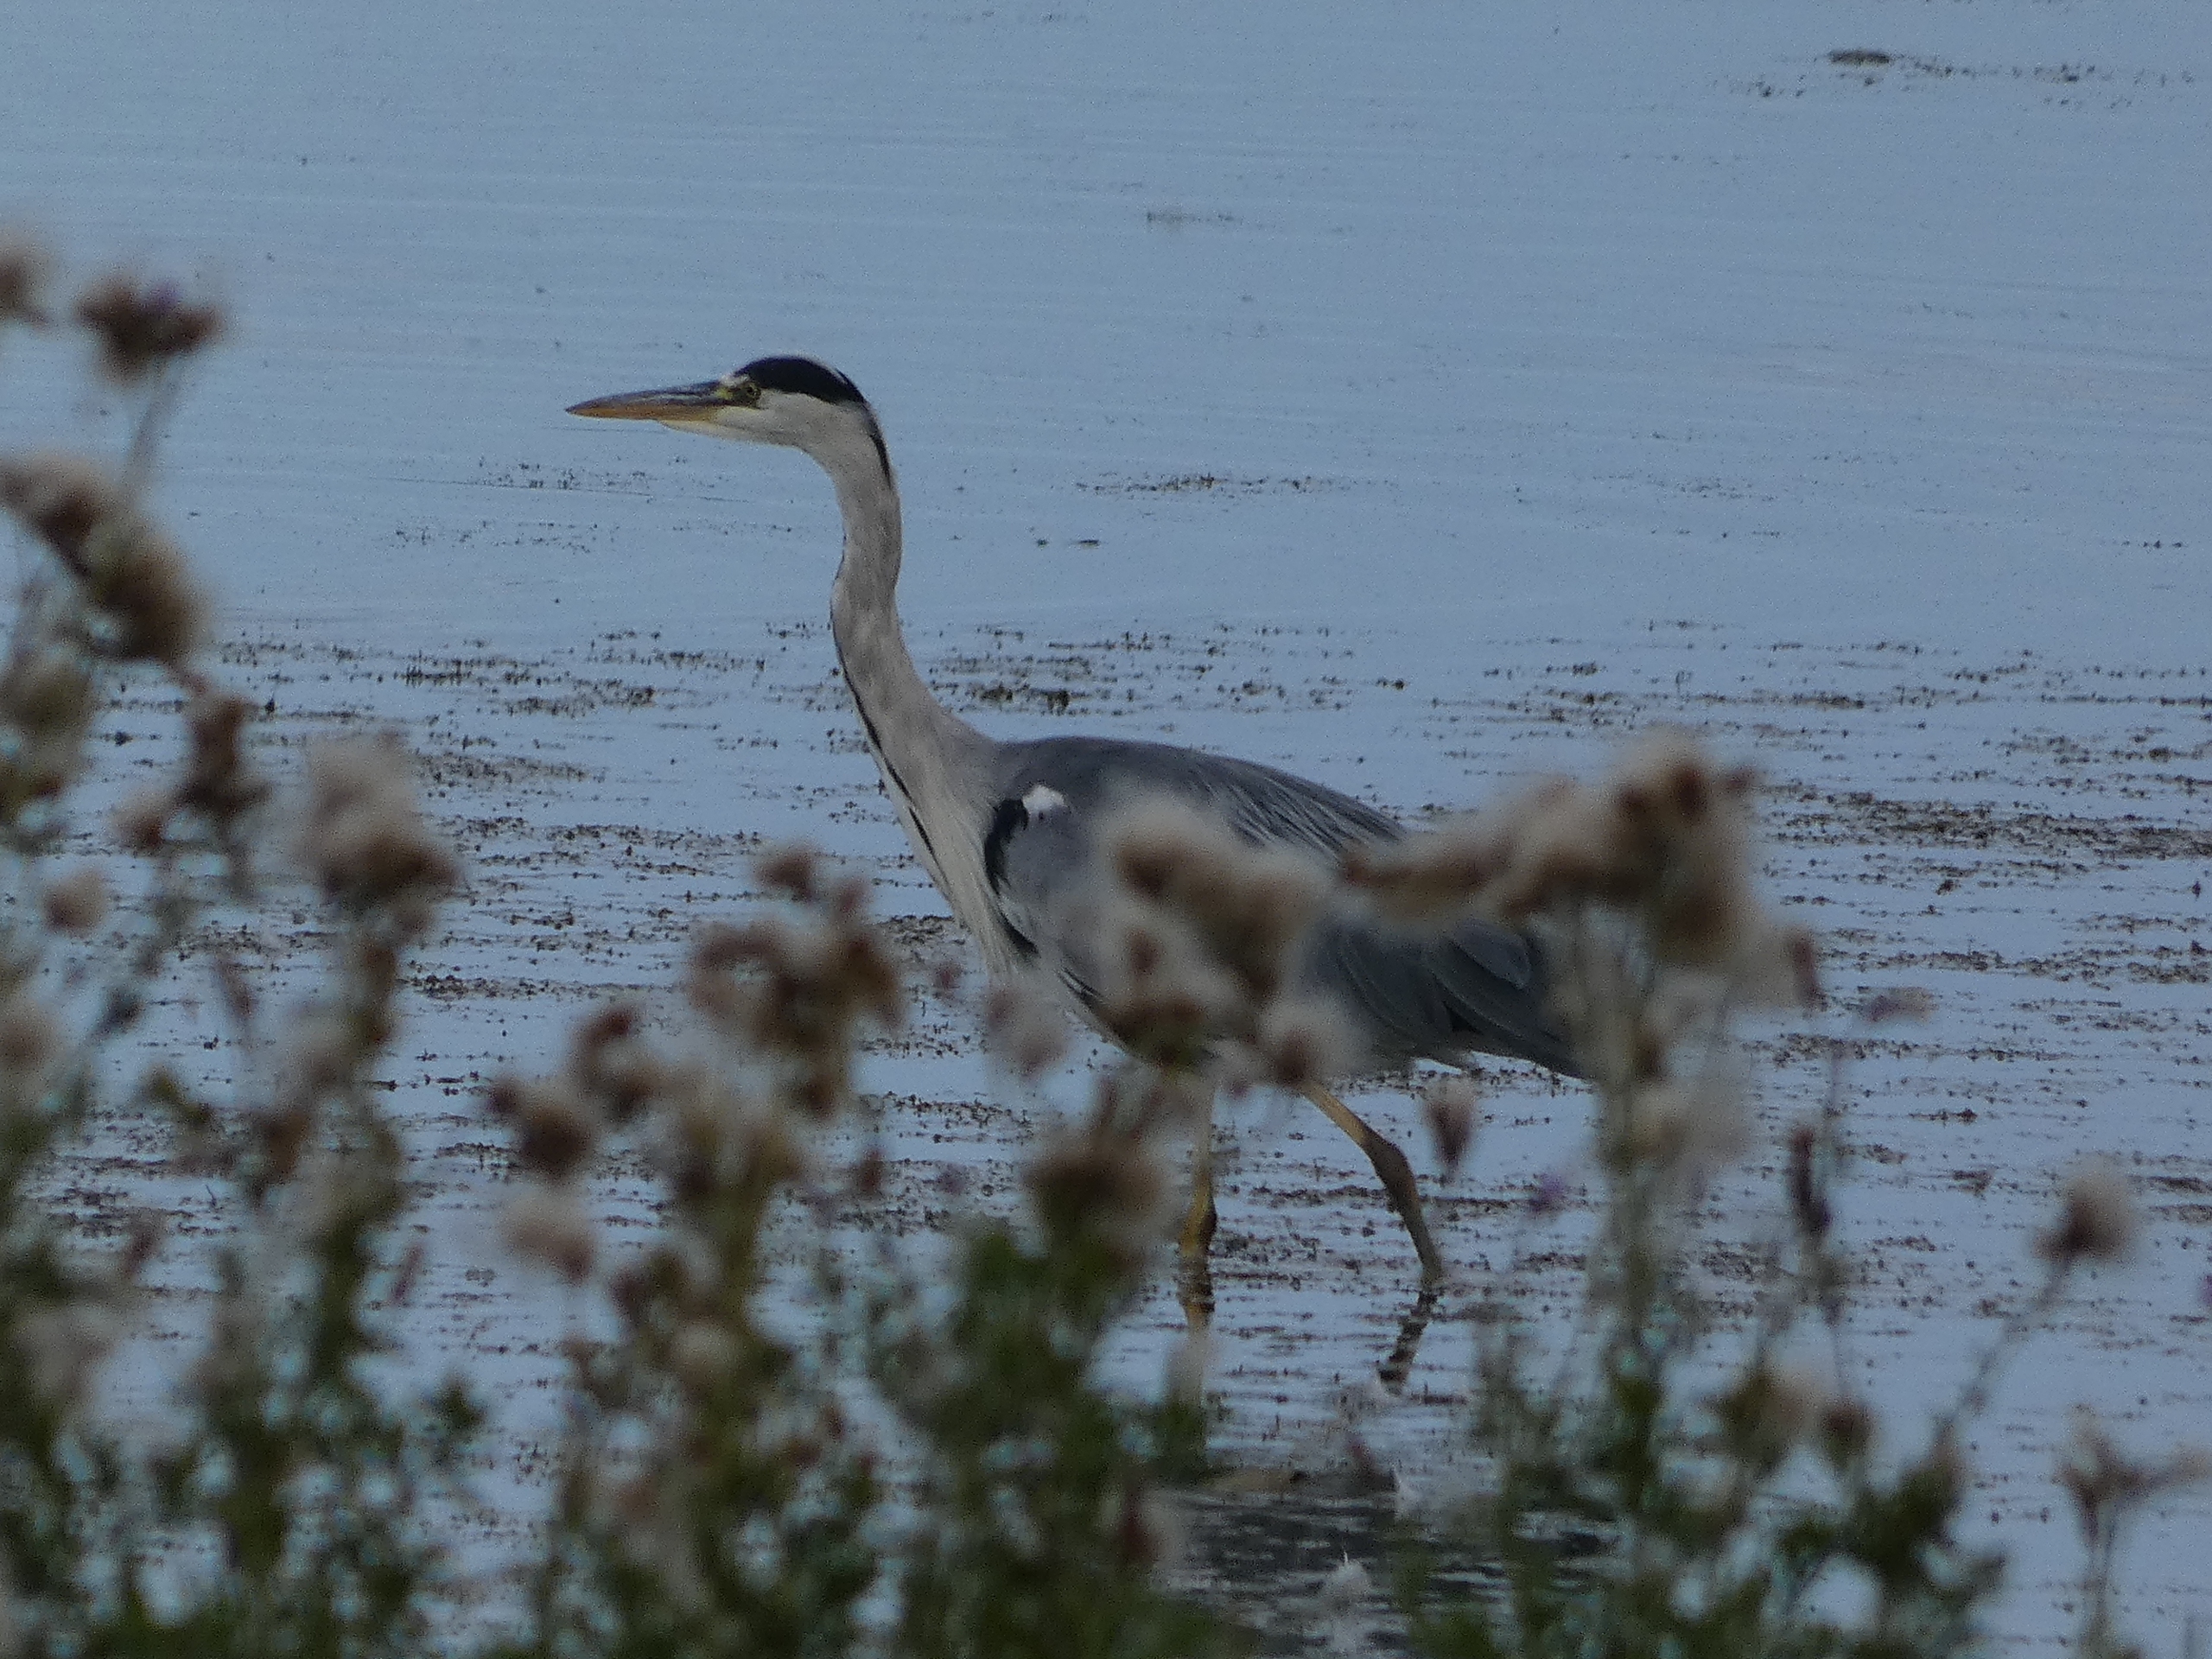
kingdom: Animalia
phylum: Chordata
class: Aves
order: Pelecaniformes
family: Ardeidae
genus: Ardea
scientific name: Ardea cinerea
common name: Fiskehejre
